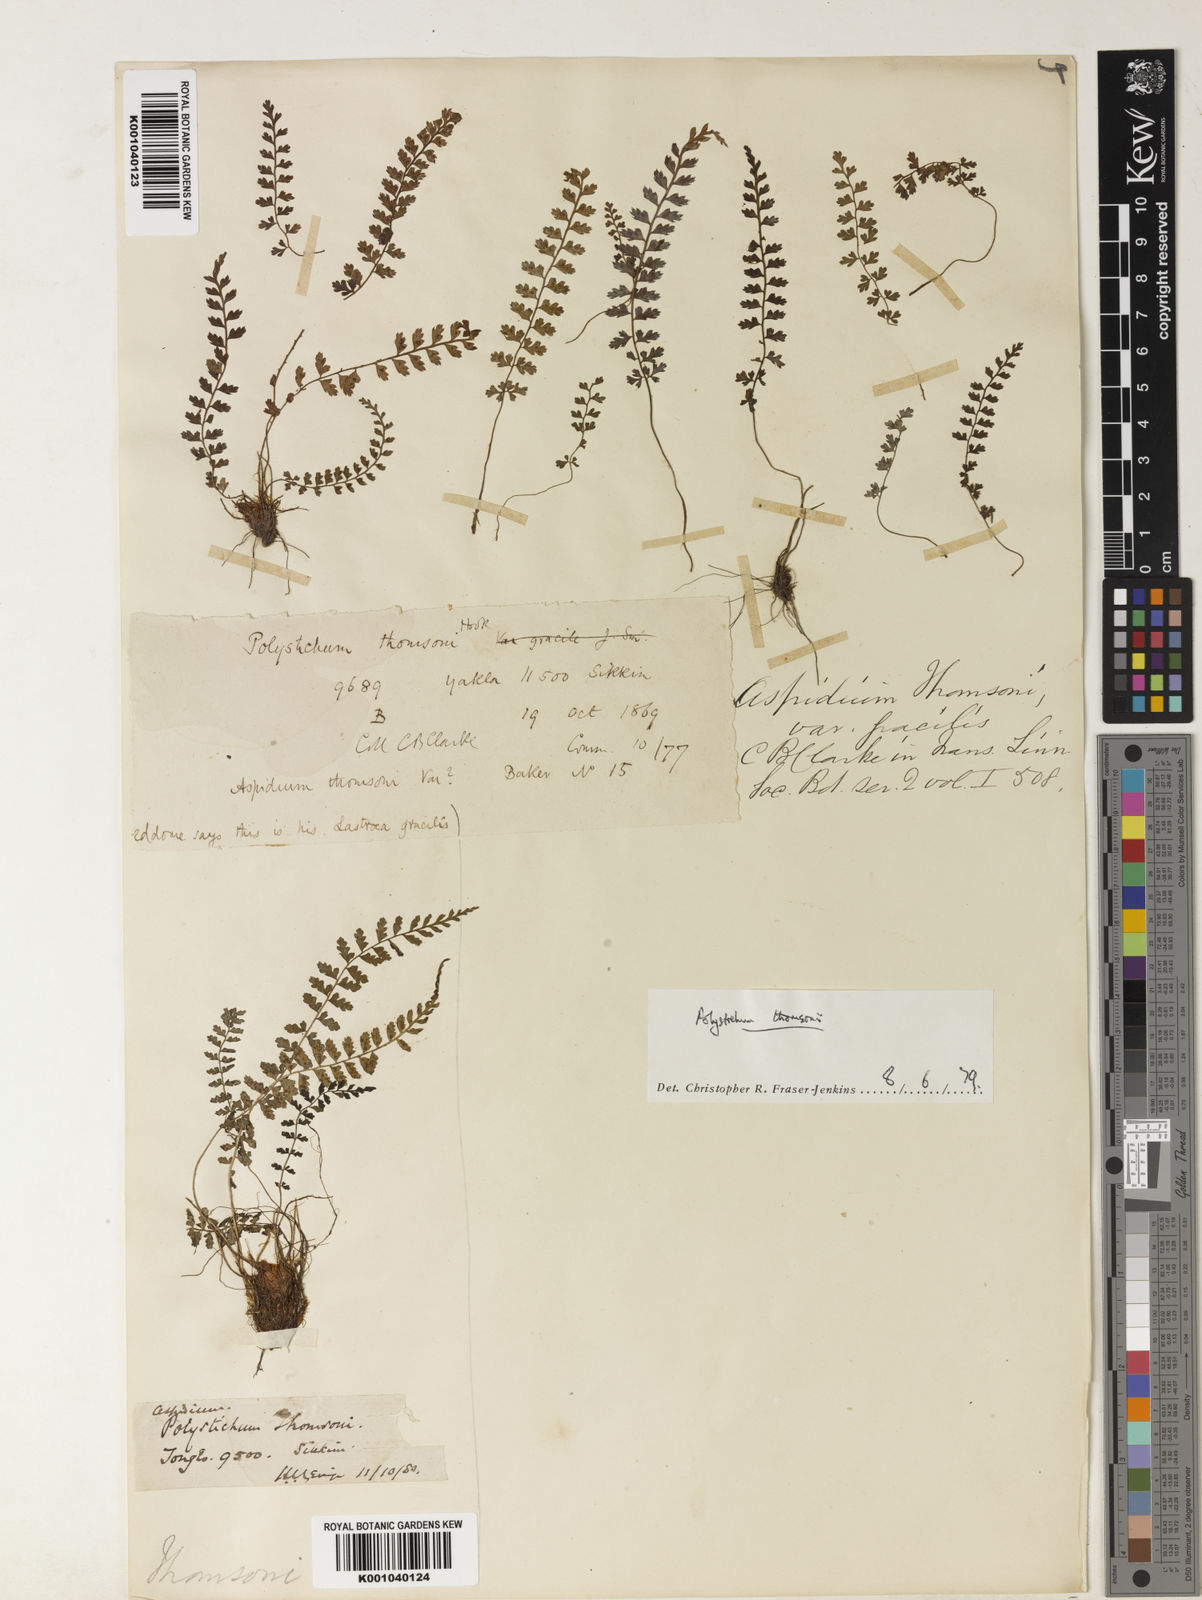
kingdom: Plantae
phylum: Tracheophyta
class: Polypodiopsida
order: Polypodiales
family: Dryopteridaceae
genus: Polystichum
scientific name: Polystichum thomsonii
